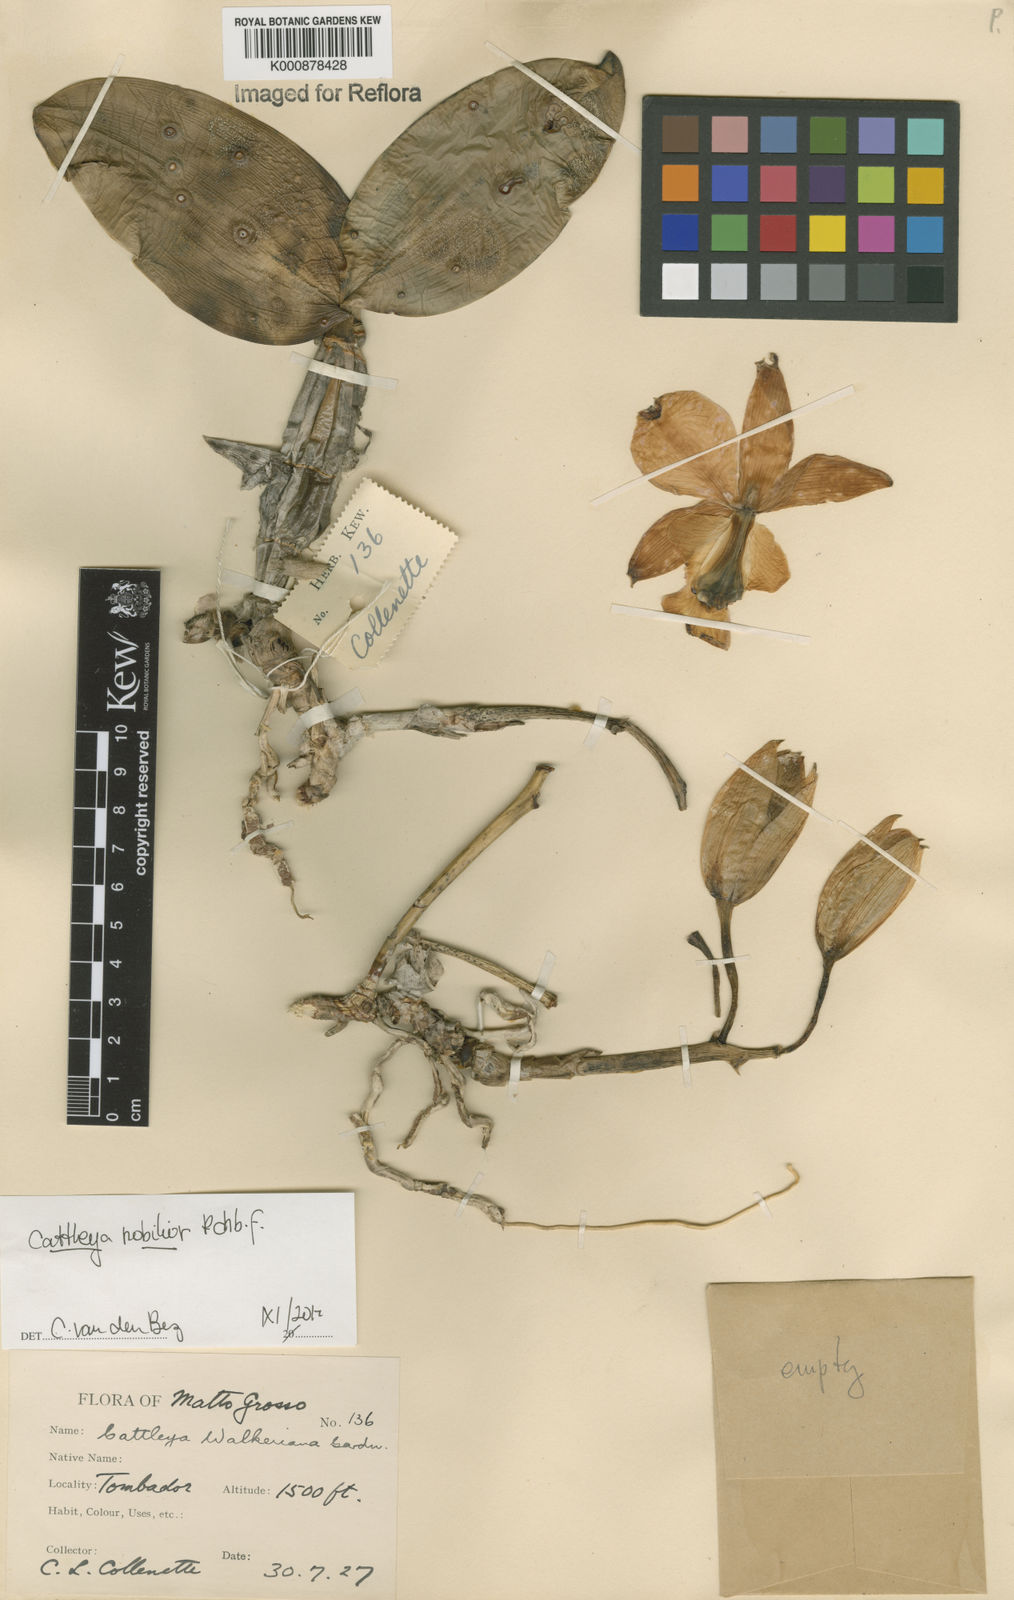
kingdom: Plantae
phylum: Tracheophyta
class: Liliopsida
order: Asparagales
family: Orchidaceae
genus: Cattleya
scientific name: Cattleya nobilior
